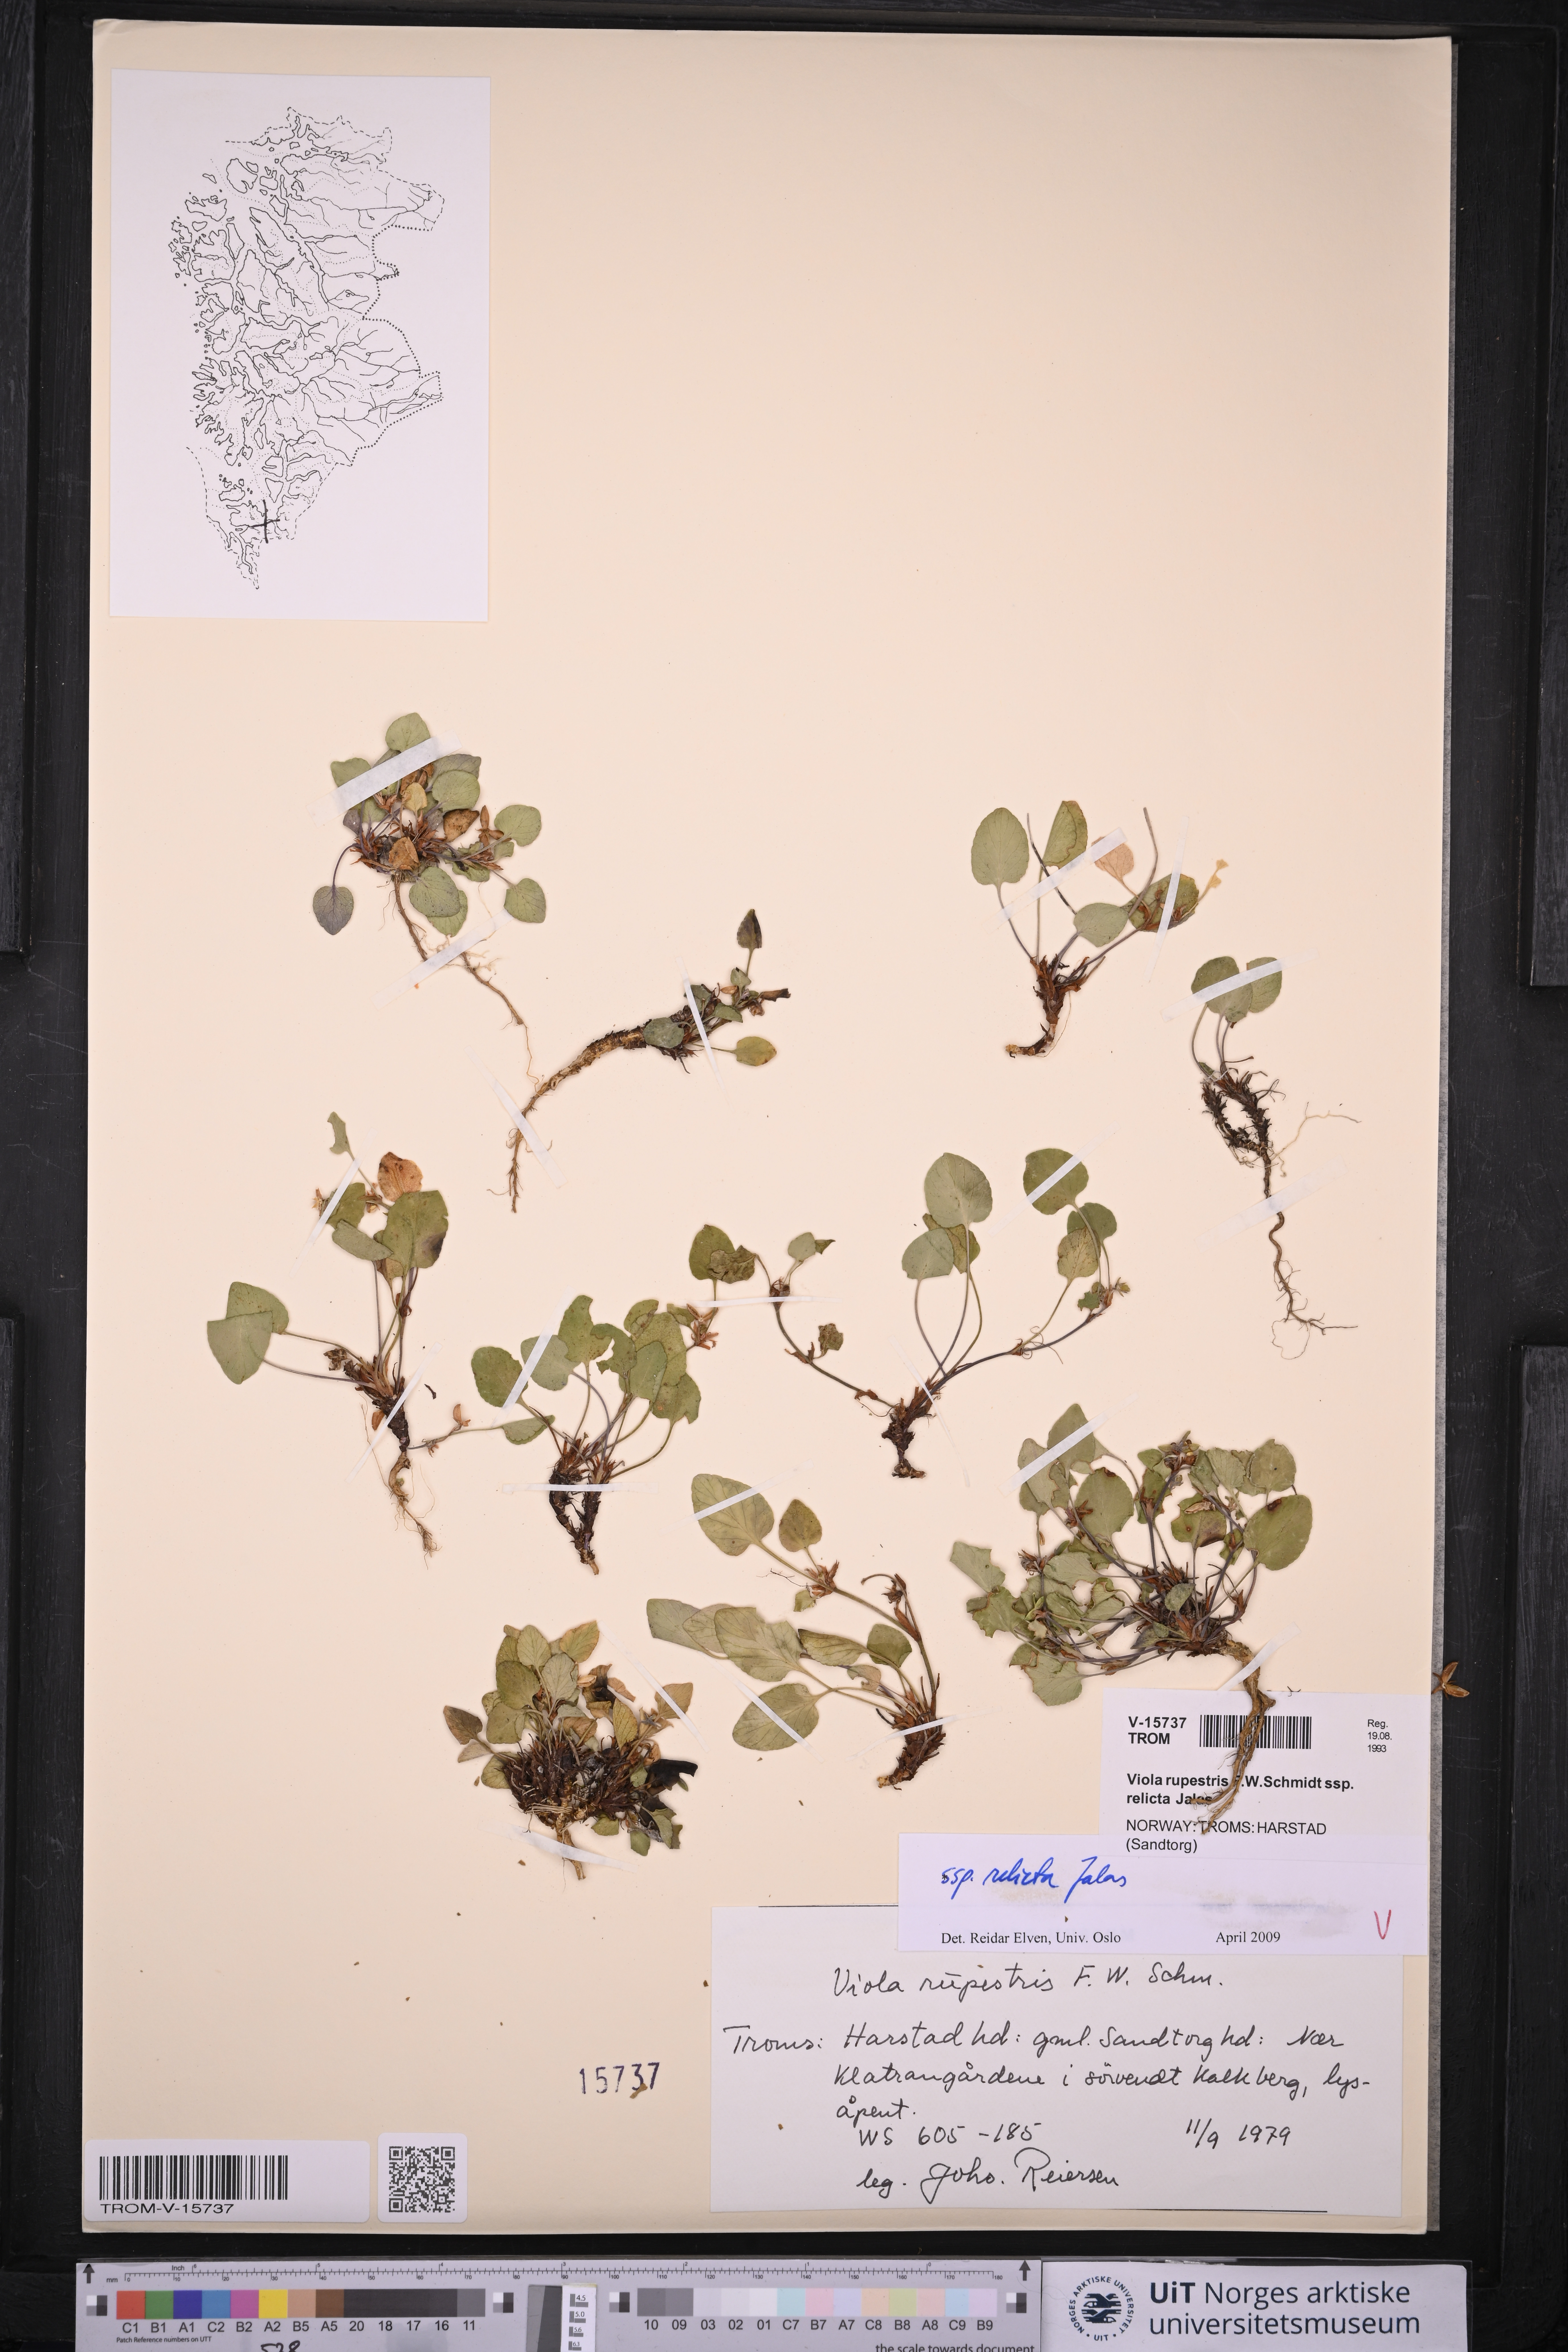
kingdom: Plantae
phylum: Tracheophyta
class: Magnoliopsida
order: Malpighiales
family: Violaceae
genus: Viola
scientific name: Viola rupestris
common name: Teesdale violet
